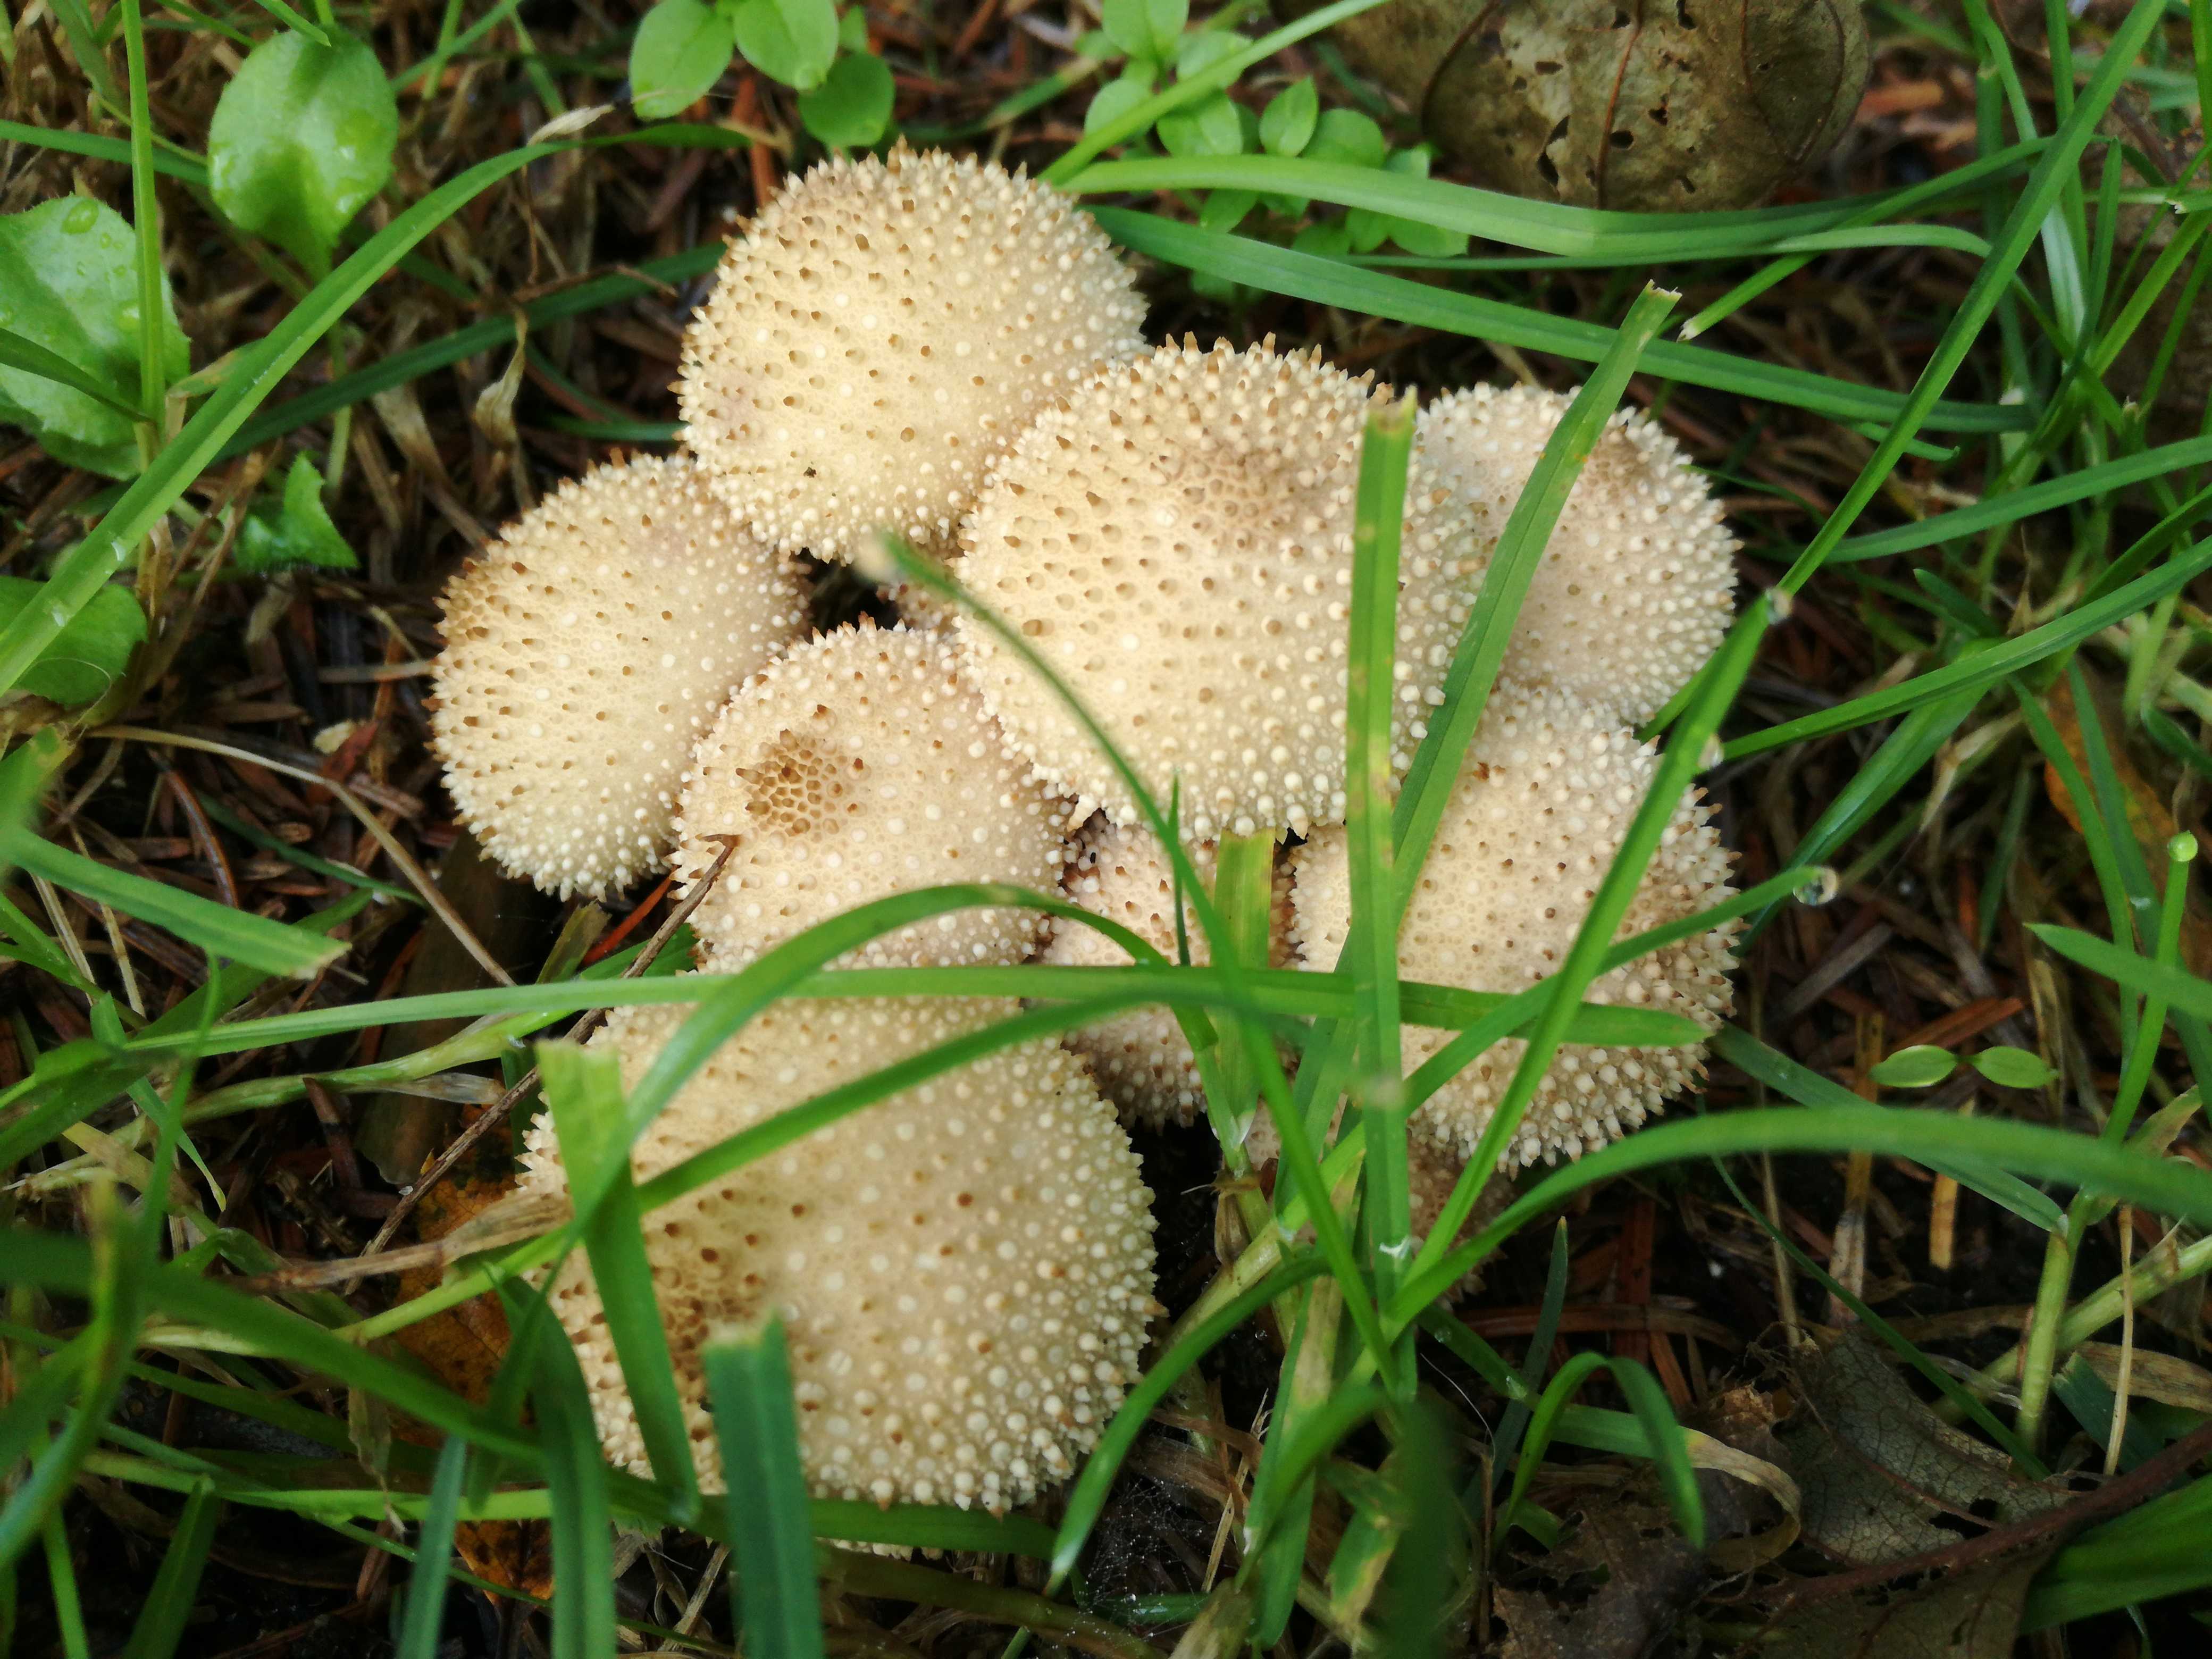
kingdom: Fungi
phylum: Basidiomycota
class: Agaricomycetes
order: Agaricales
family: Lycoperdaceae
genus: Lycoperdon
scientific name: Lycoperdon perlatum
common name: krystal-støvbold
